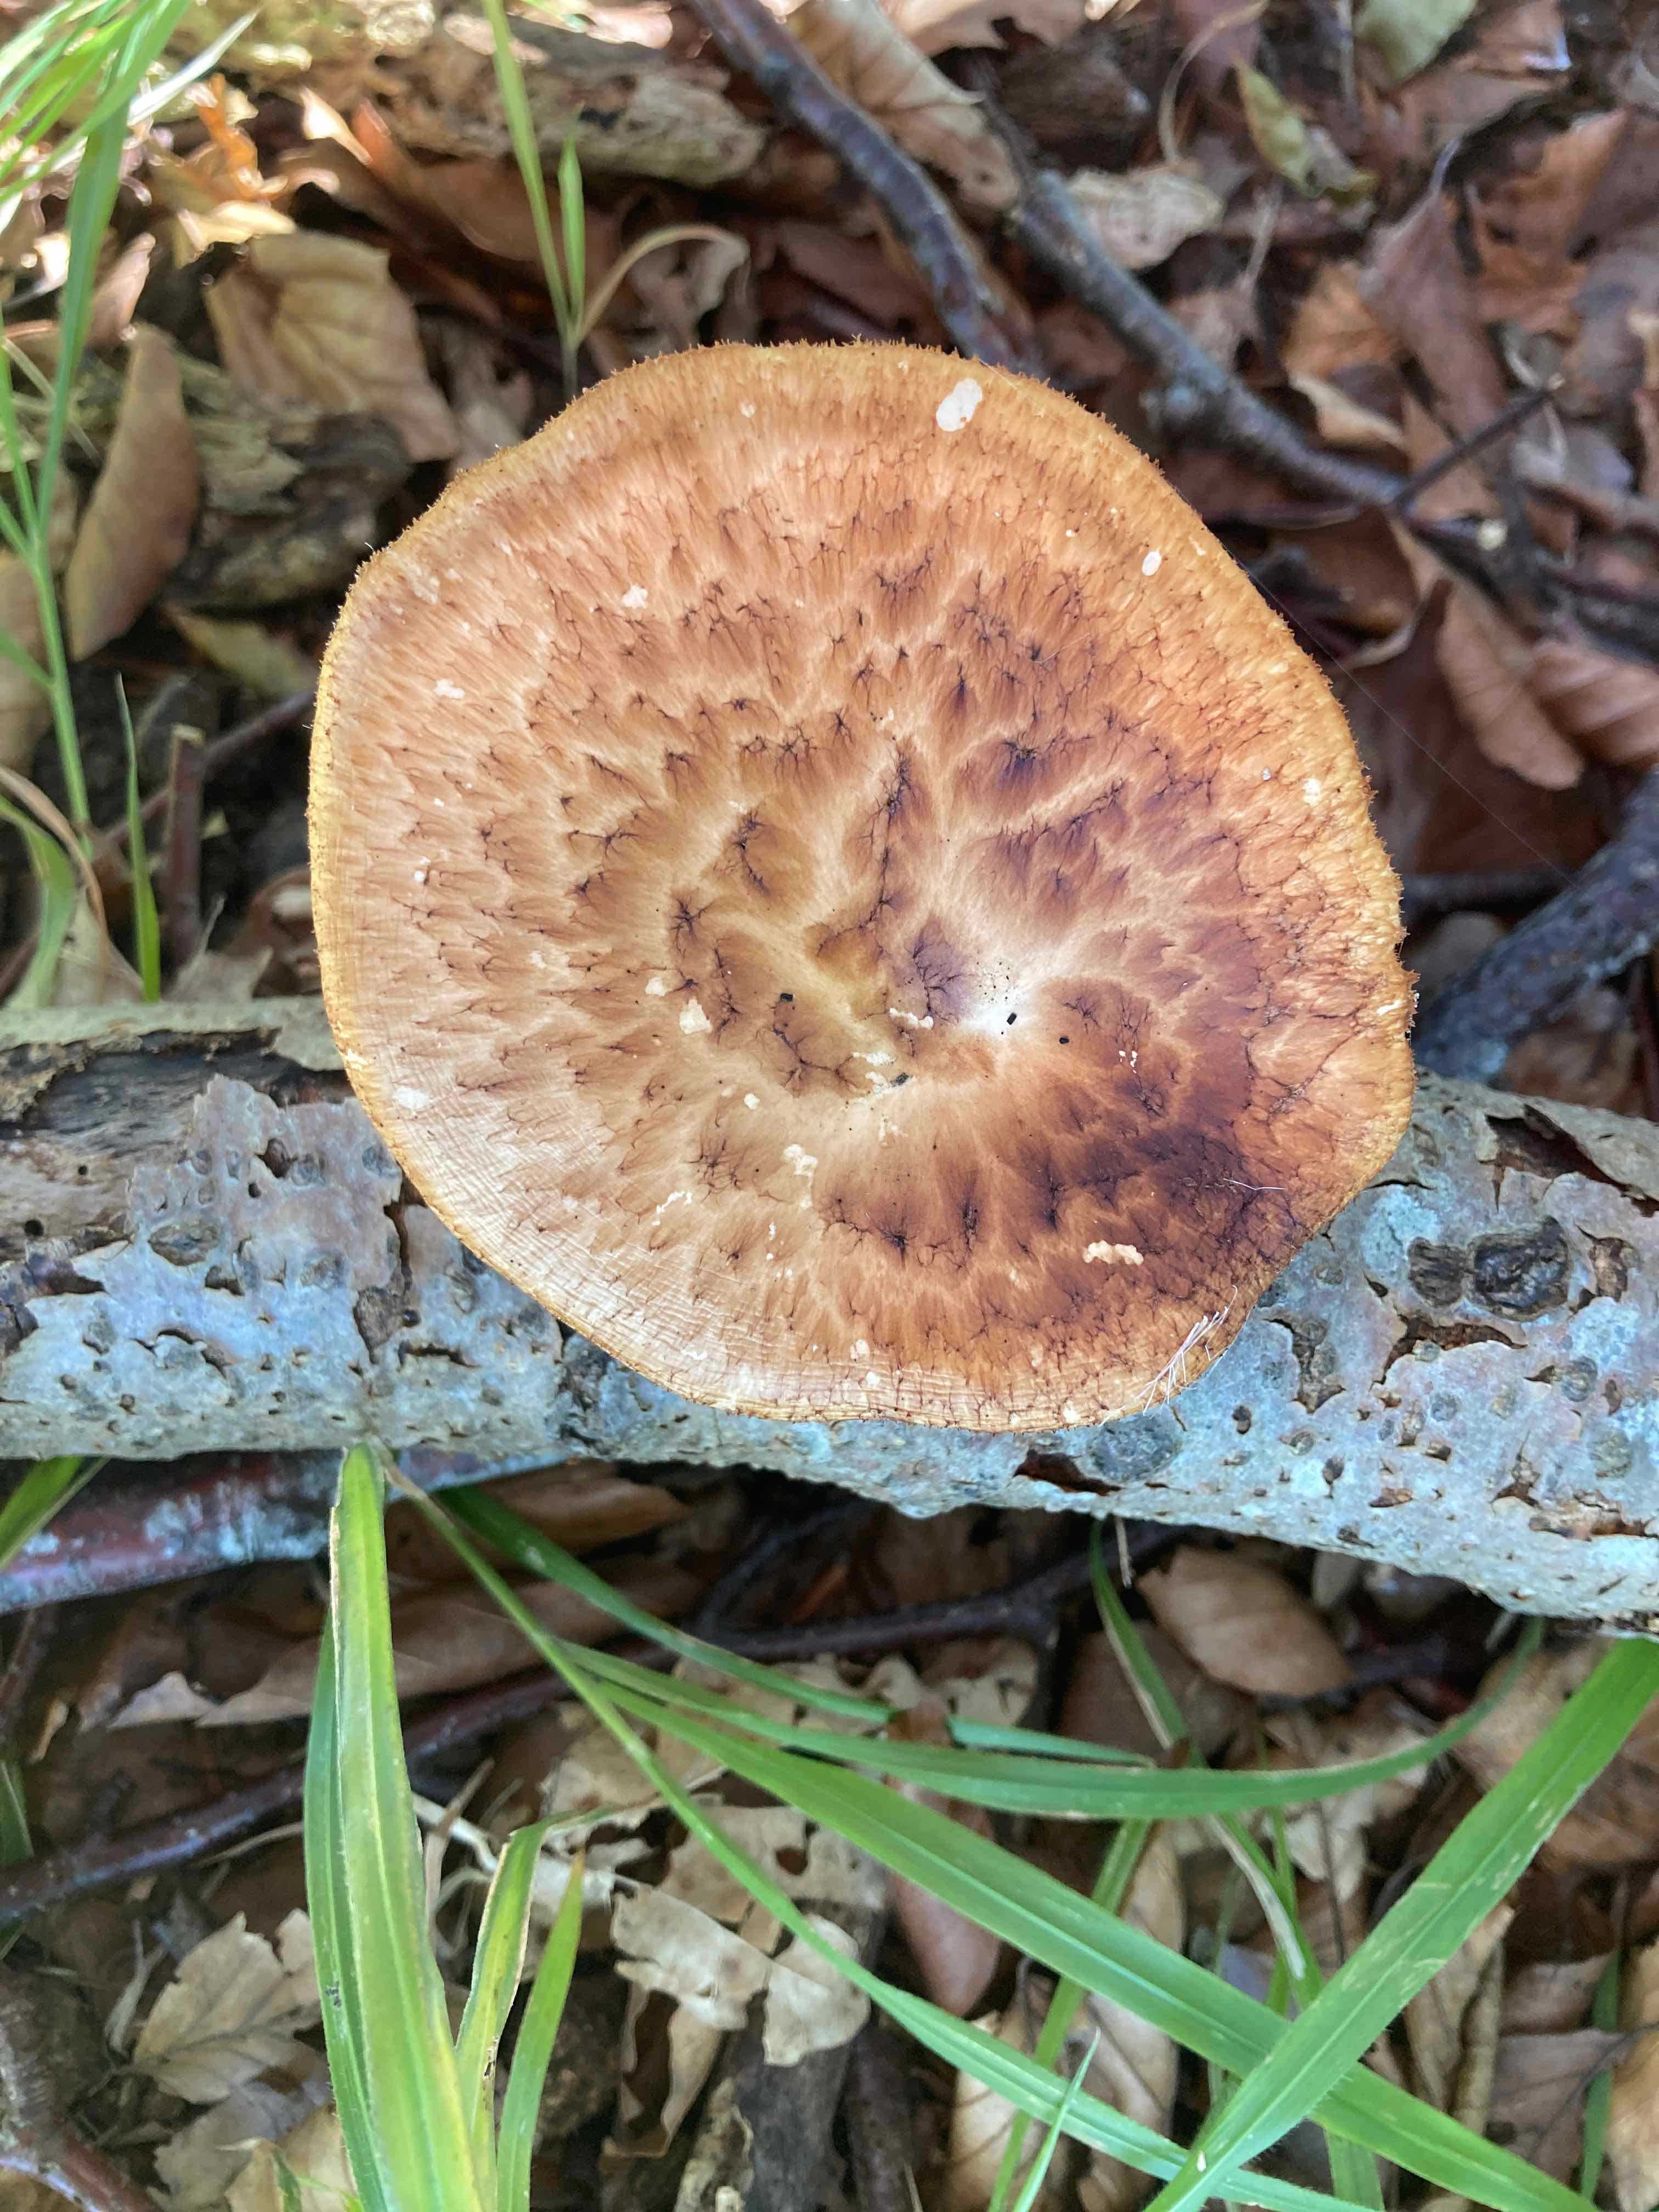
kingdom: Fungi
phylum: Basidiomycota
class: Agaricomycetes
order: Polyporales
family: Polyporaceae
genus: Polyporus
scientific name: Polyporus tuberaster
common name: knoldet stilkporesvamp
